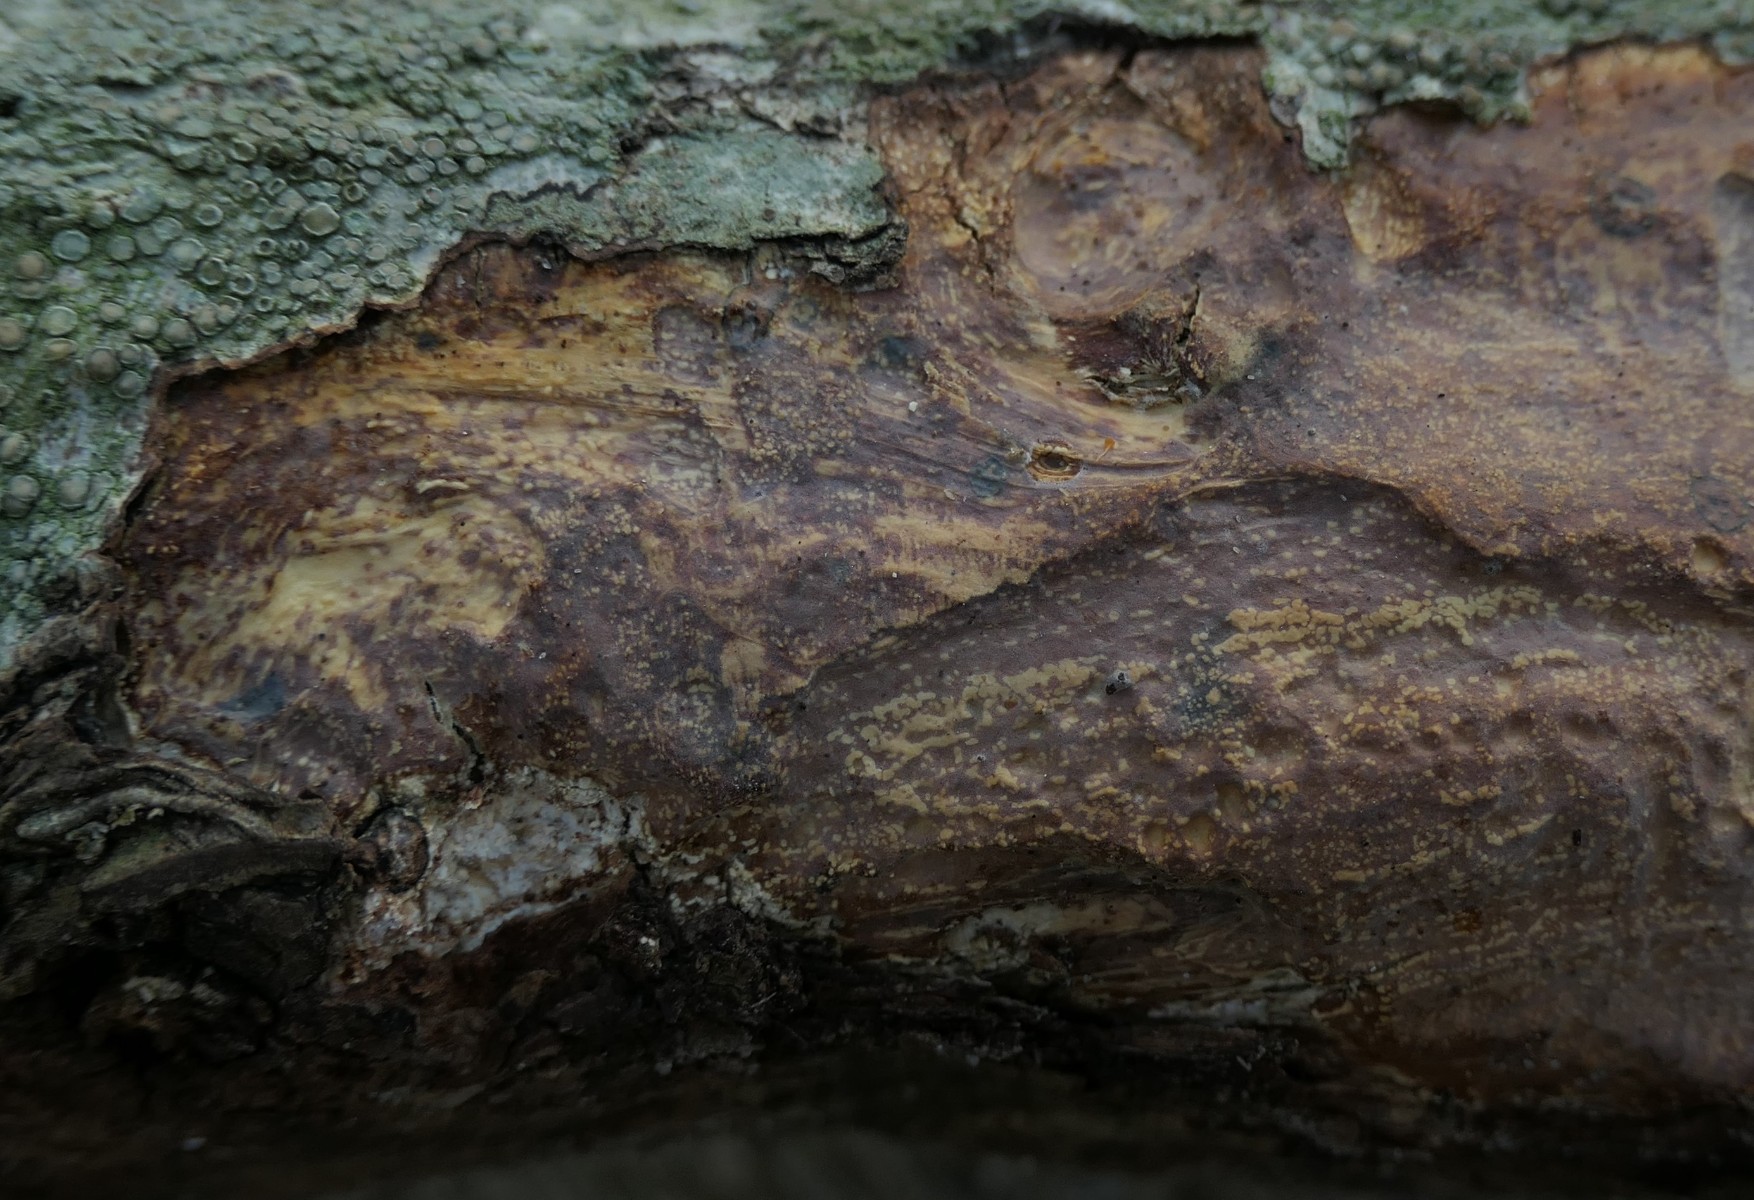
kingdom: Fungi
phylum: Basidiomycota
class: Agaricomycetes
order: Corticiales
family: Vuilleminiaceae
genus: Vuilleminia
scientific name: Vuilleminia comedens
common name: almindelig barksprænger
